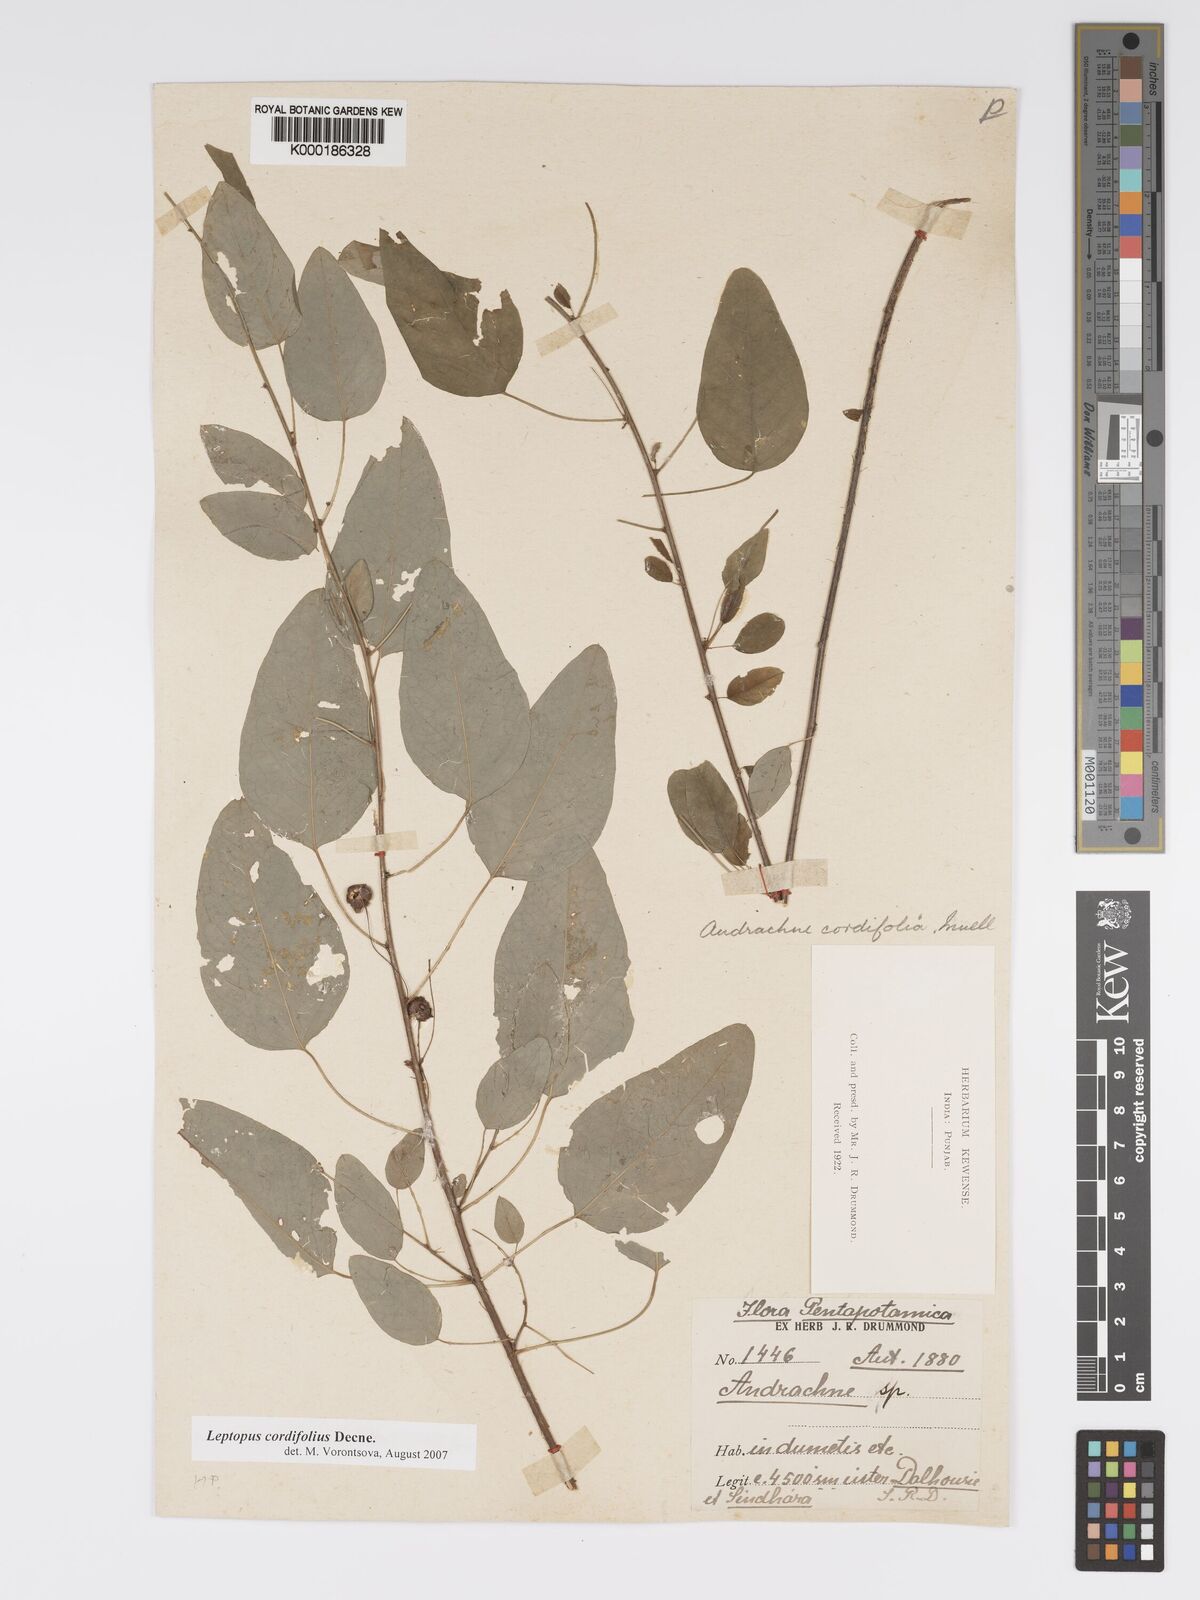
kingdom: Plantae
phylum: Tracheophyta
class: Magnoliopsida
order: Malpighiales
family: Phyllanthaceae
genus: Leptopus
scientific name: Leptopus cordifolius
